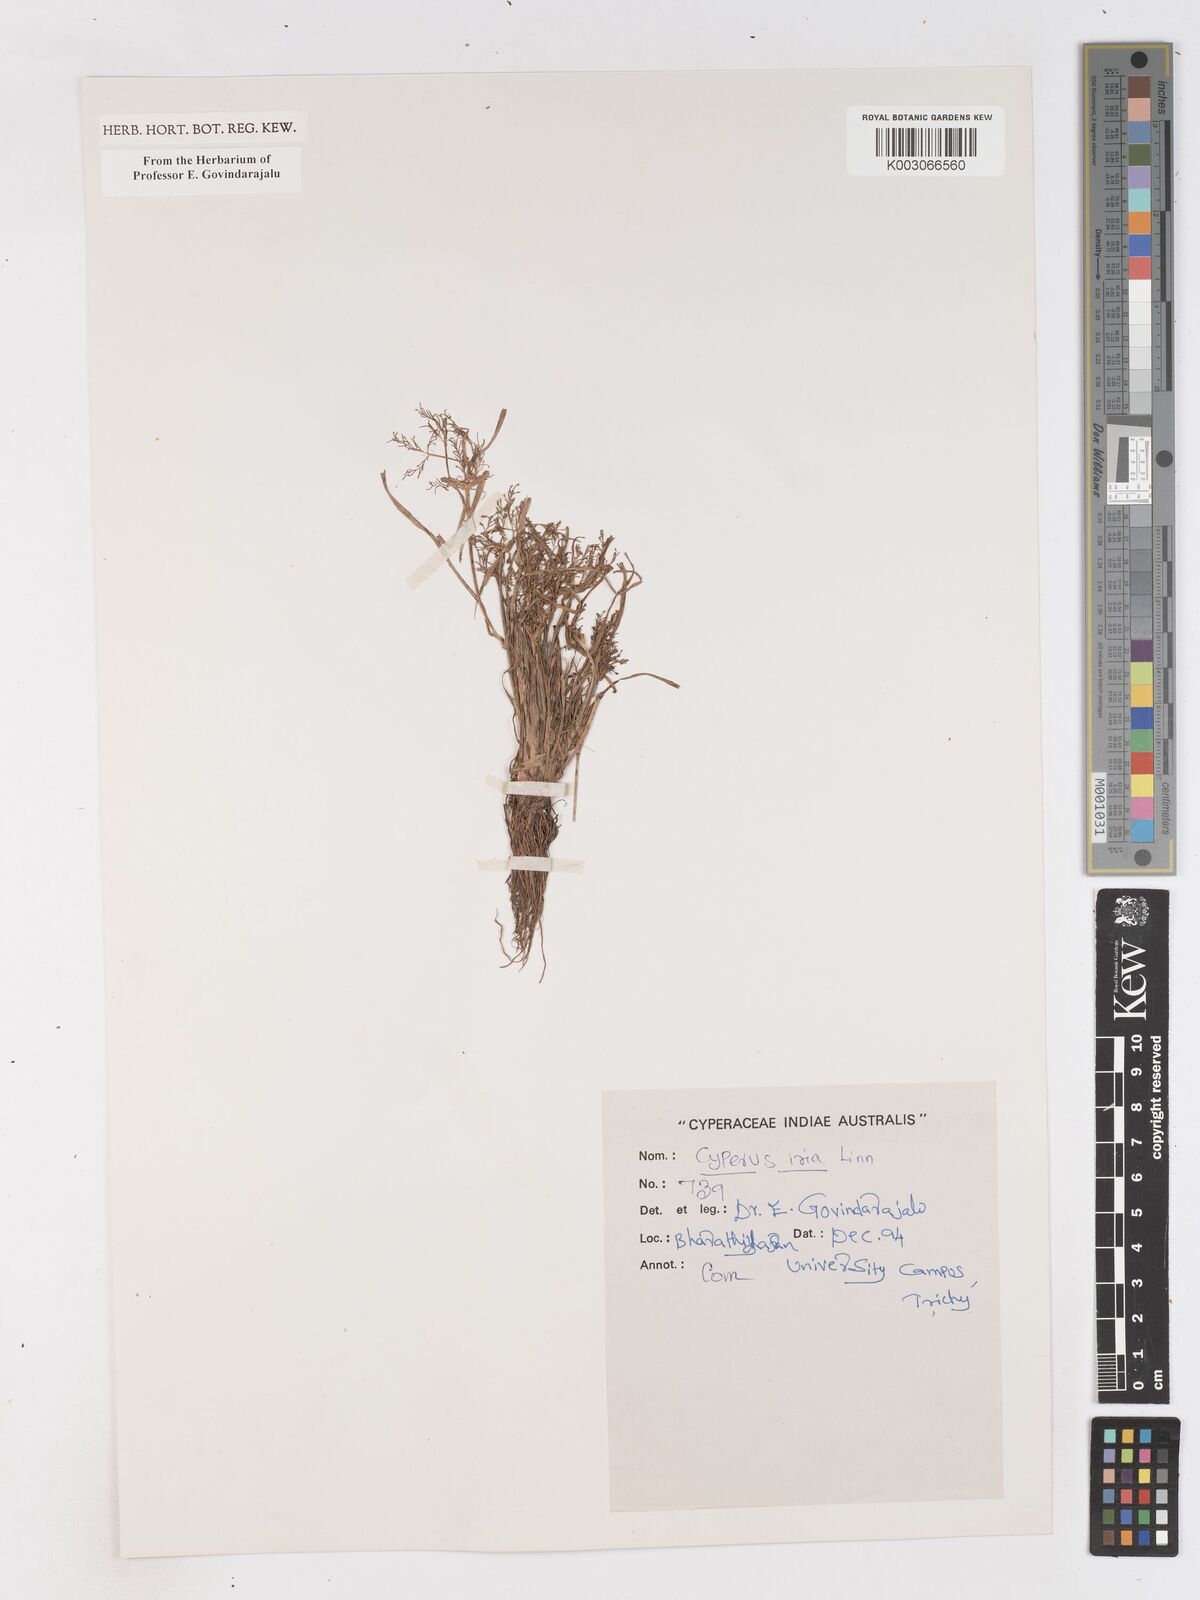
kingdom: Plantae
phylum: Tracheophyta
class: Liliopsida
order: Poales
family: Cyperaceae
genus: Cyperus
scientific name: Cyperus iria
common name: Ricefield flatsedge
